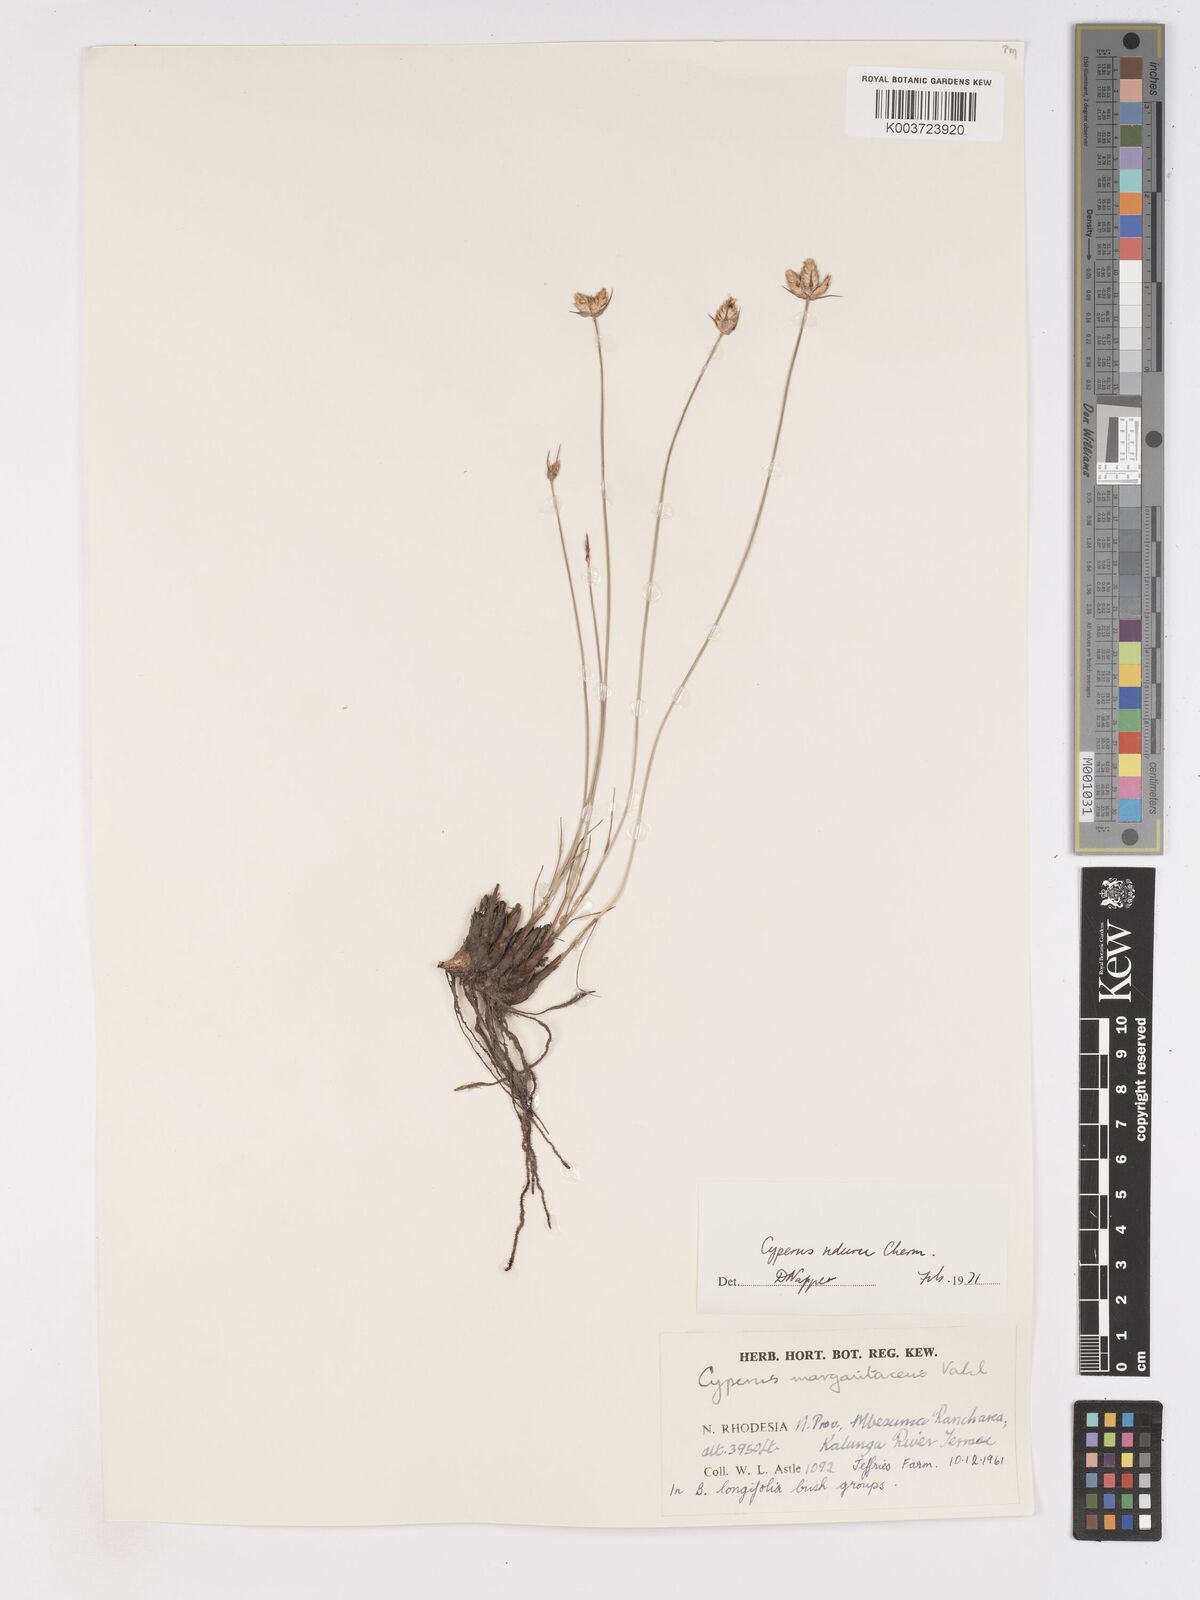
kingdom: Plantae
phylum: Tracheophyta
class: Liliopsida
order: Poales
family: Cyperaceae
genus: Cyperus
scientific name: Cyperus nduru
